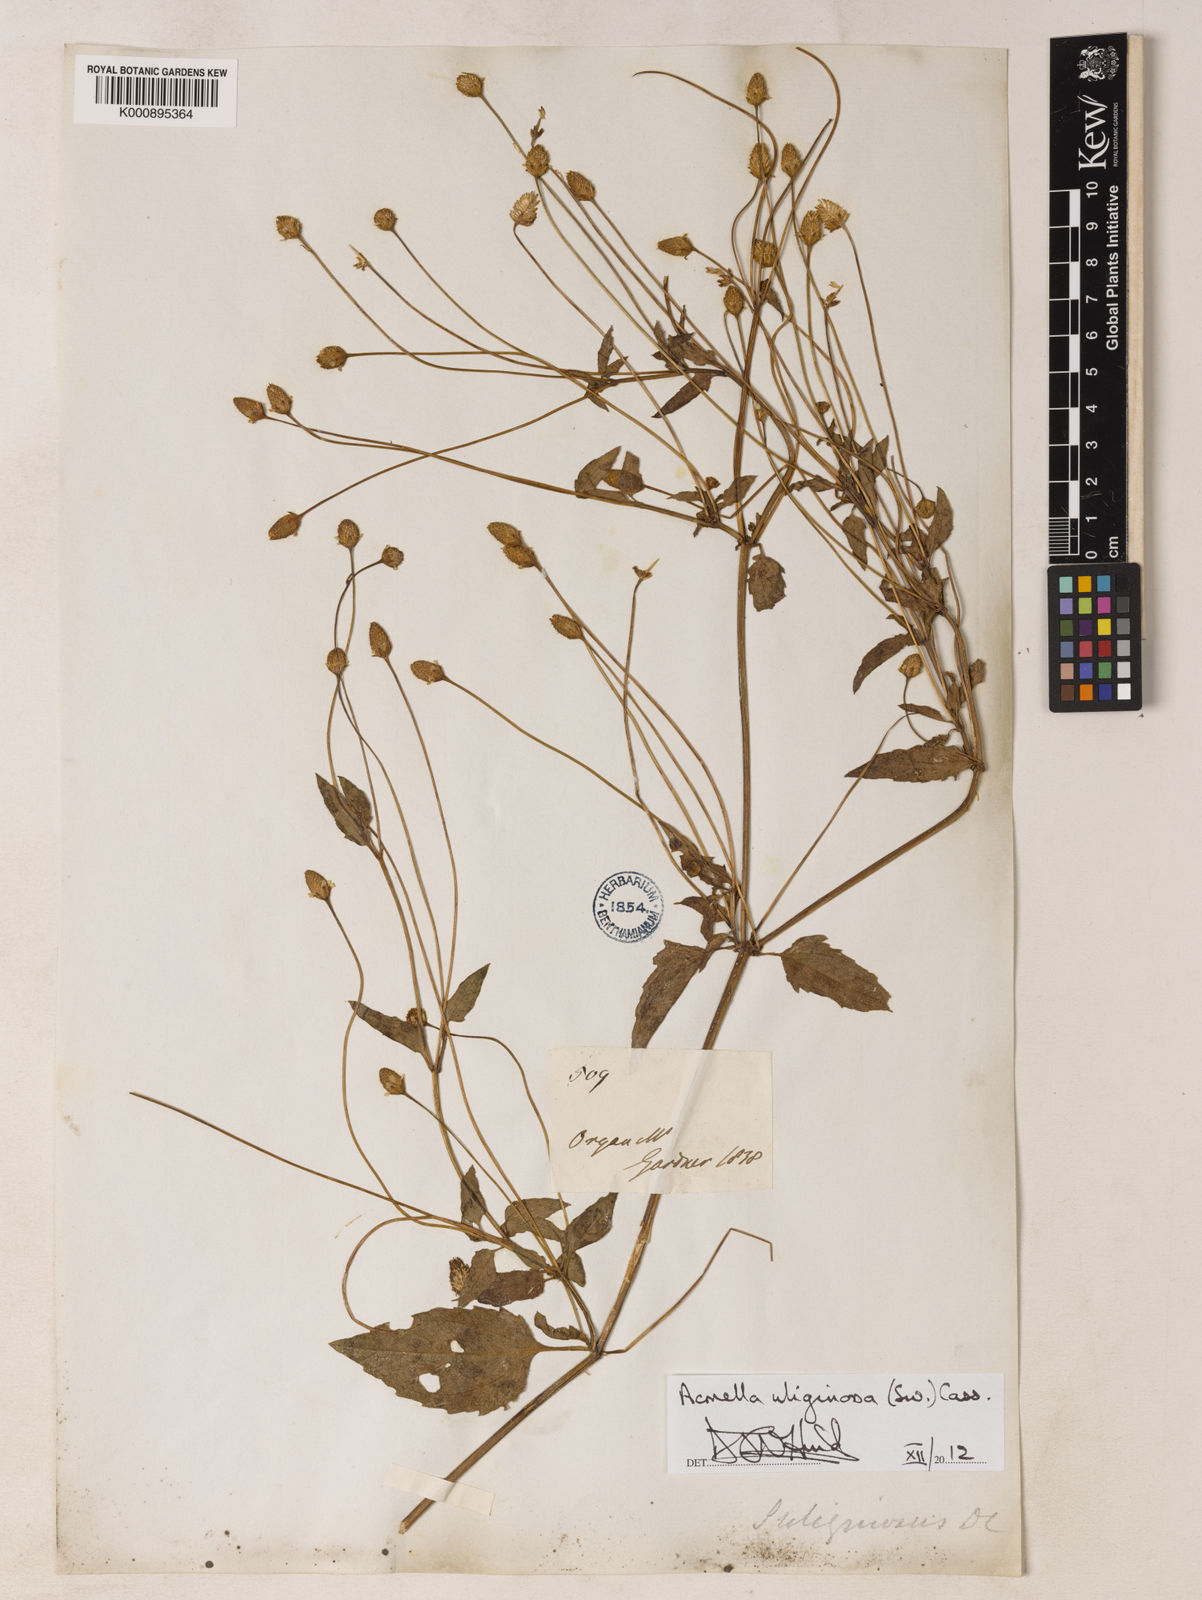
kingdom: Plantae
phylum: Tracheophyta
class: Magnoliopsida
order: Asterales
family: Asteraceae
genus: Acmella
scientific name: Acmella uliginosa
